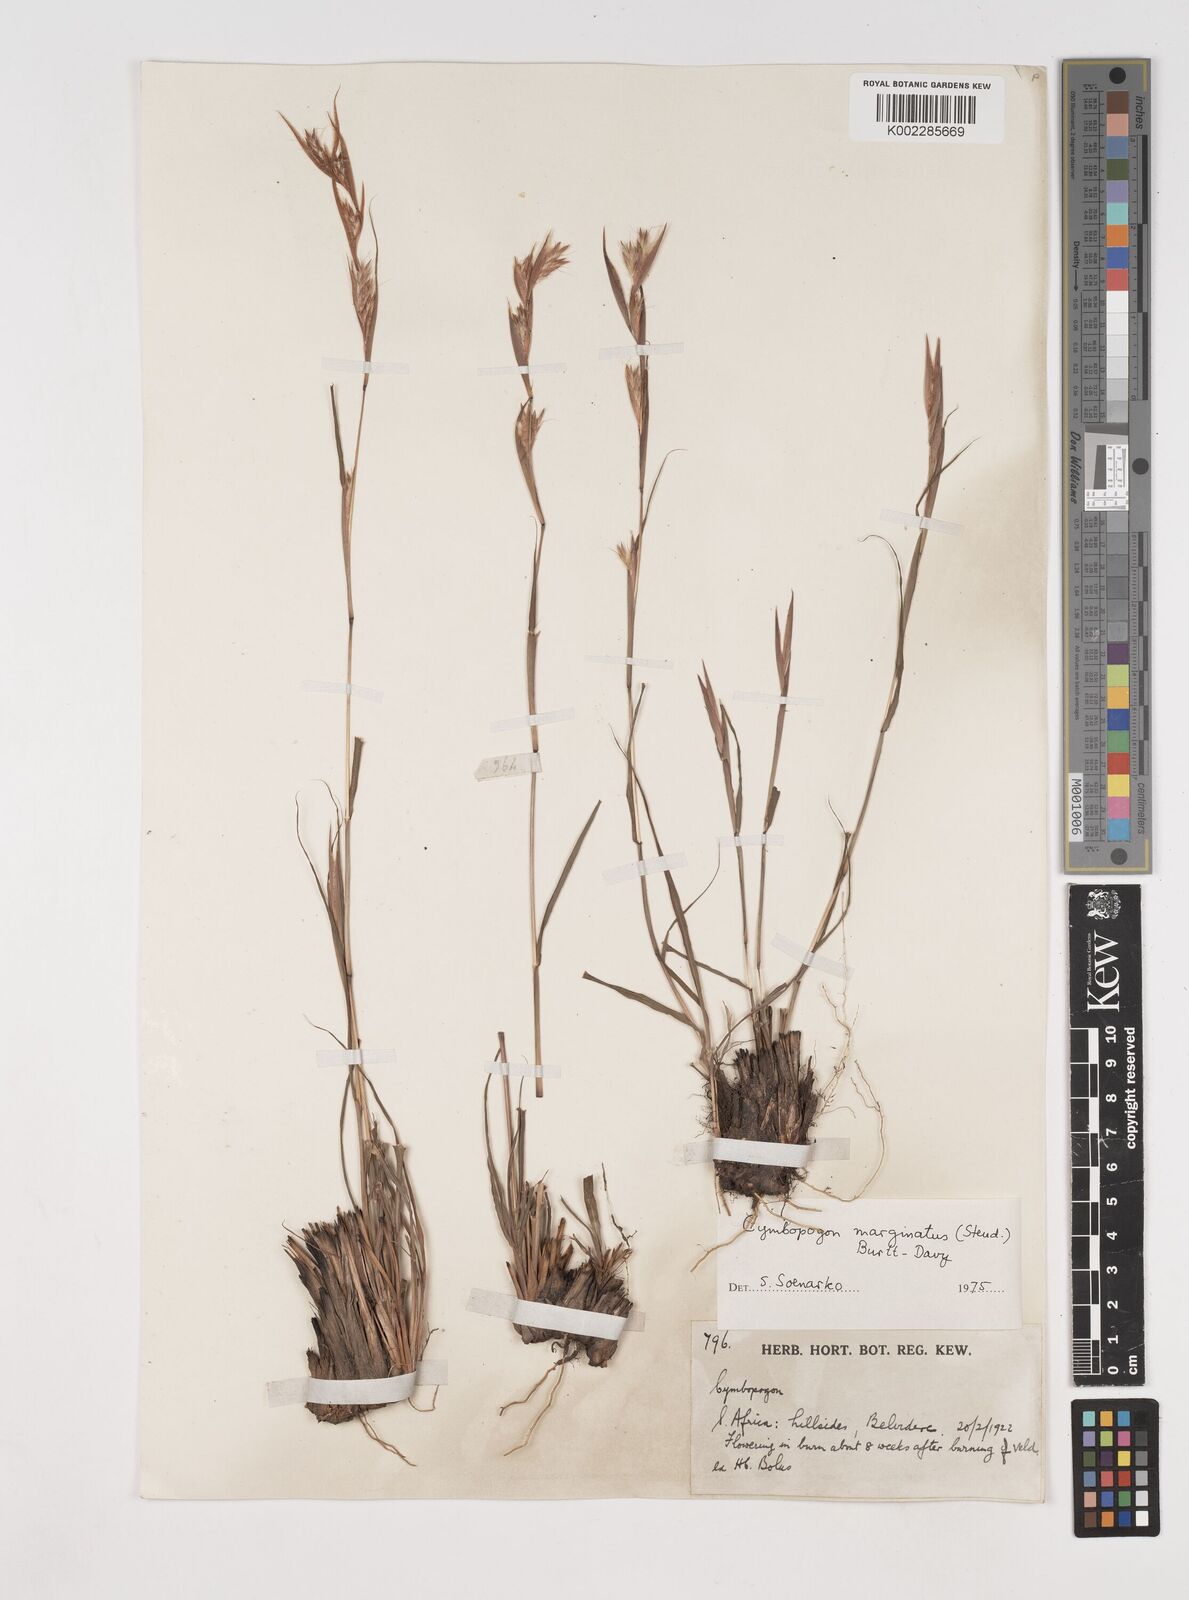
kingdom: Plantae
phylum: Tracheophyta
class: Liliopsida
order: Poales
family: Poaceae
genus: Cymbopogon
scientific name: Cymbopogon marginatus
